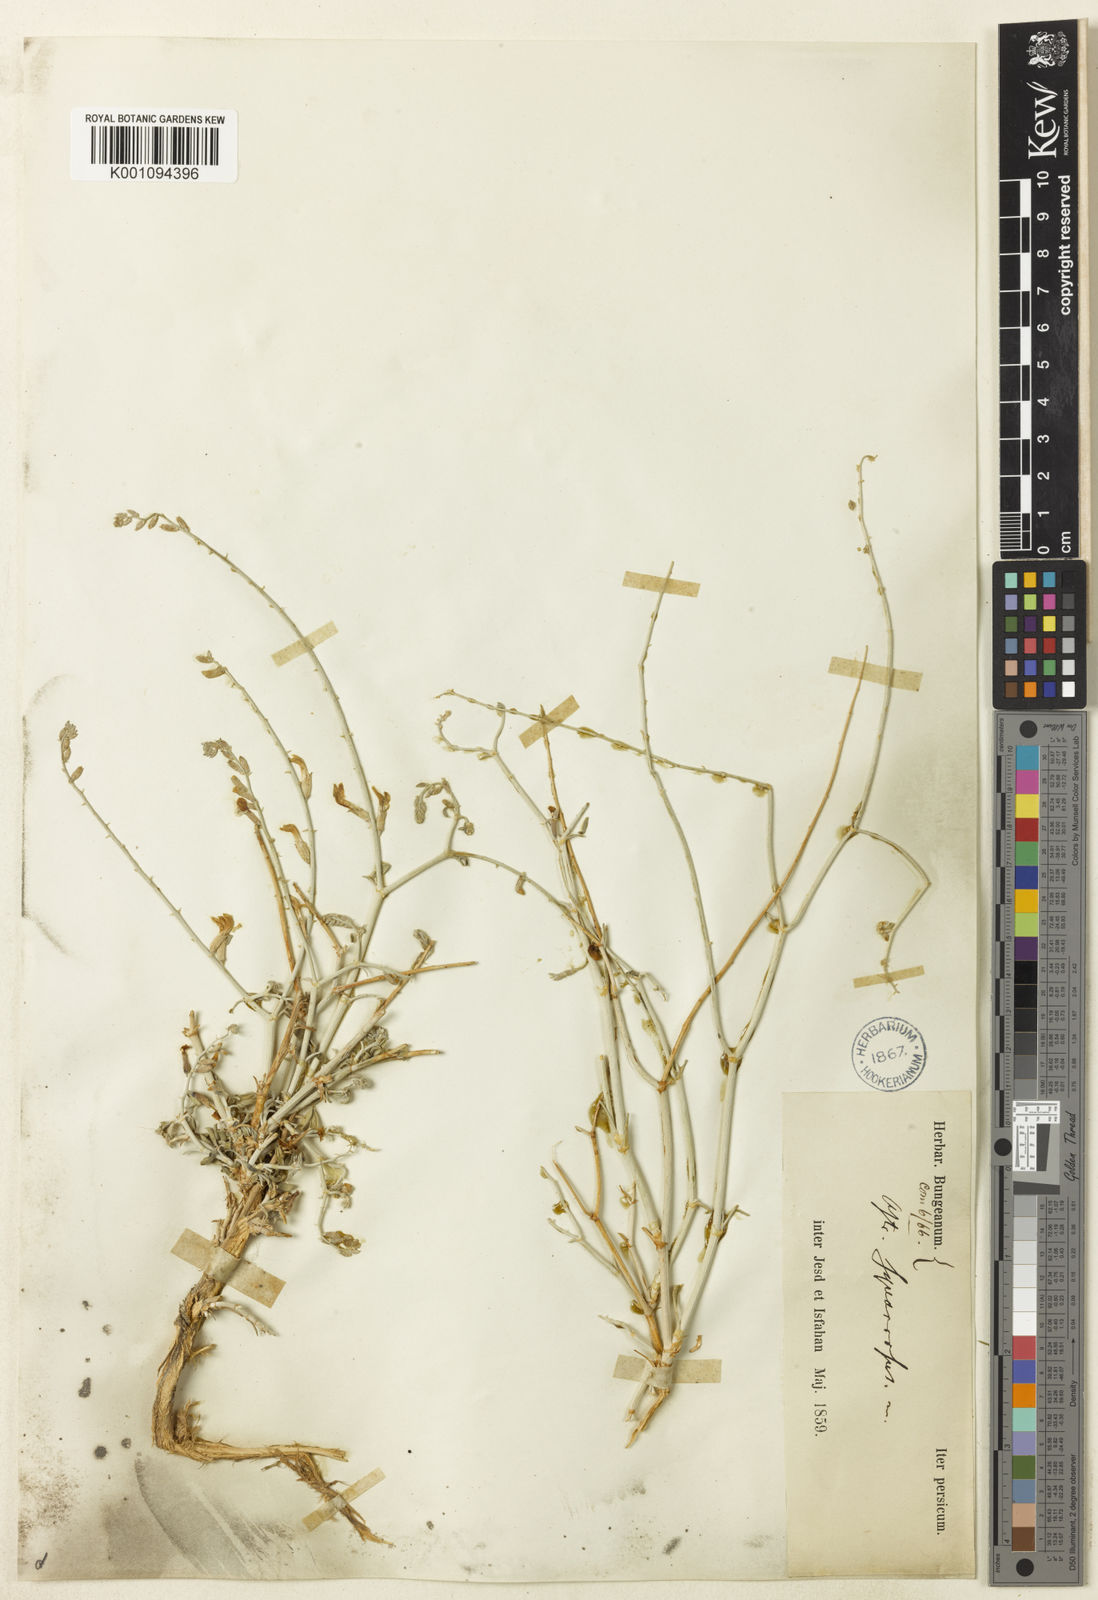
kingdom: Plantae
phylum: Tracheophyta
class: Magnoliopsida
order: Fabales
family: Fabaceae
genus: Astragalus
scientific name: Astragalus
